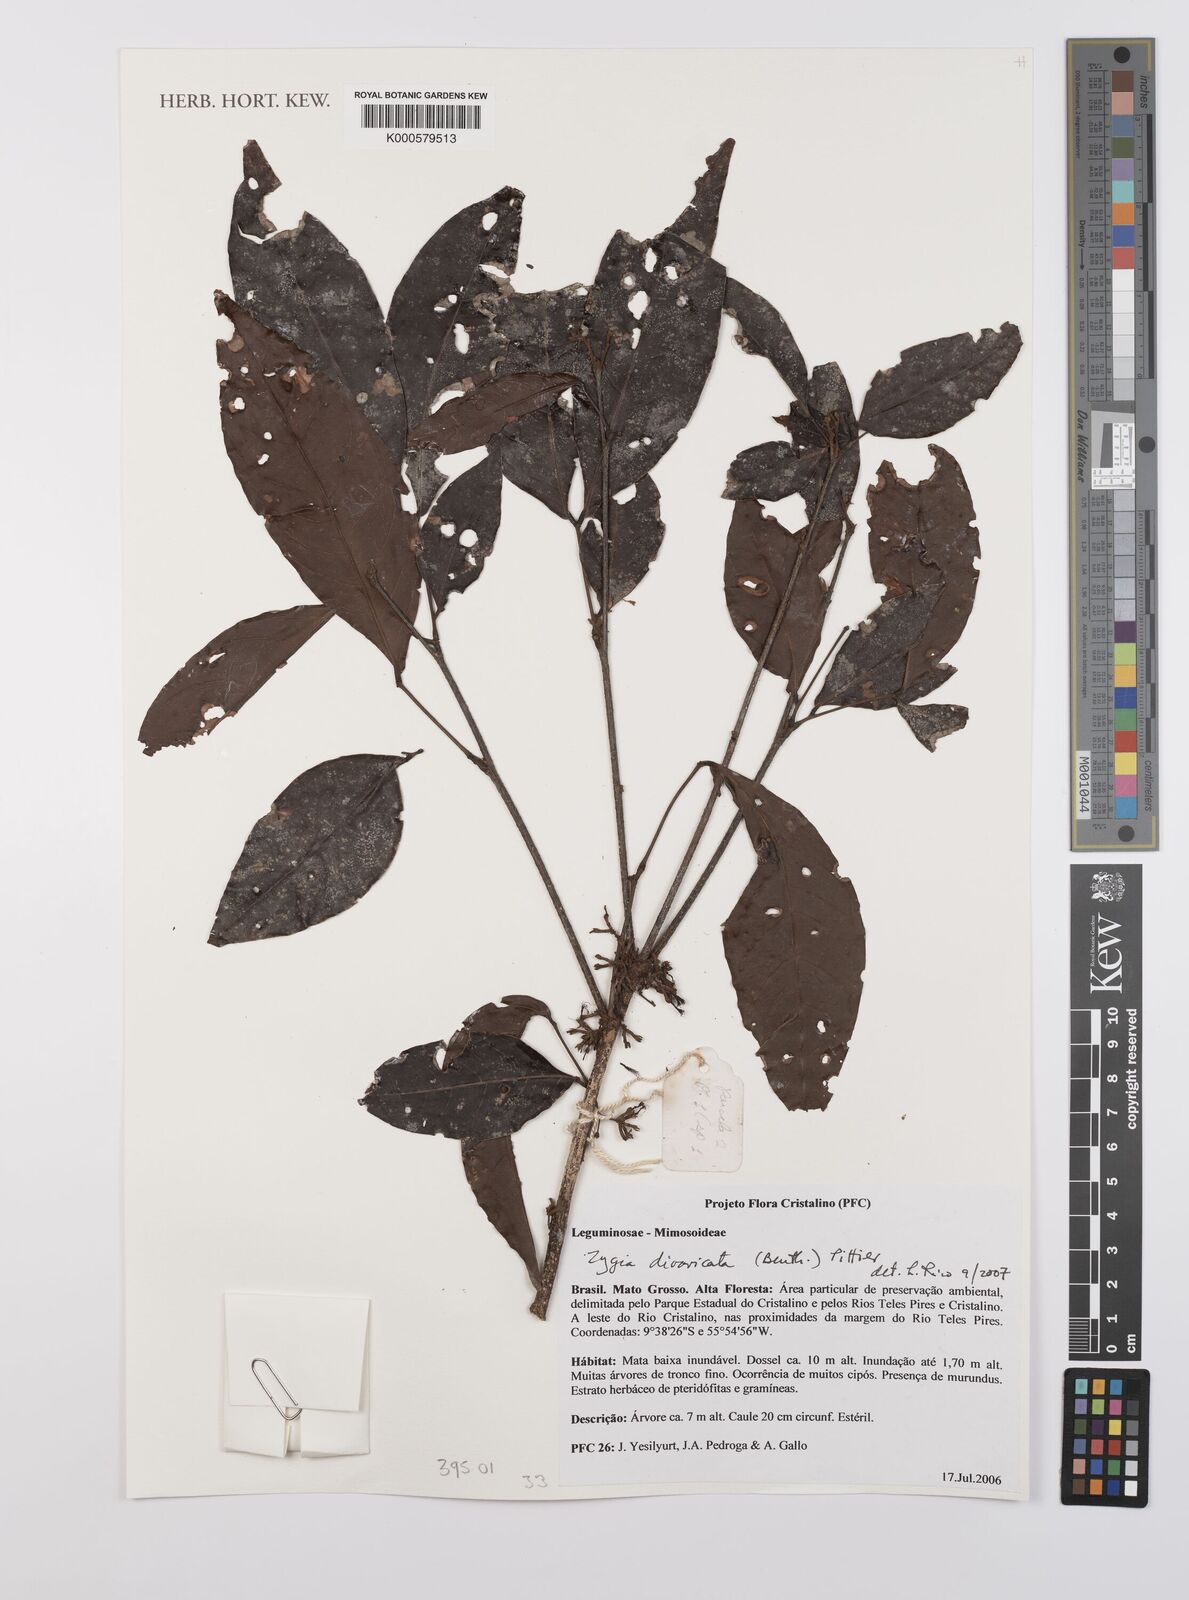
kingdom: Plantae
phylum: Tracheophyta
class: Magnoliopsida
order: Fabales
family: Fabaceae
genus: Zygia
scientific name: Zygia cataractae
